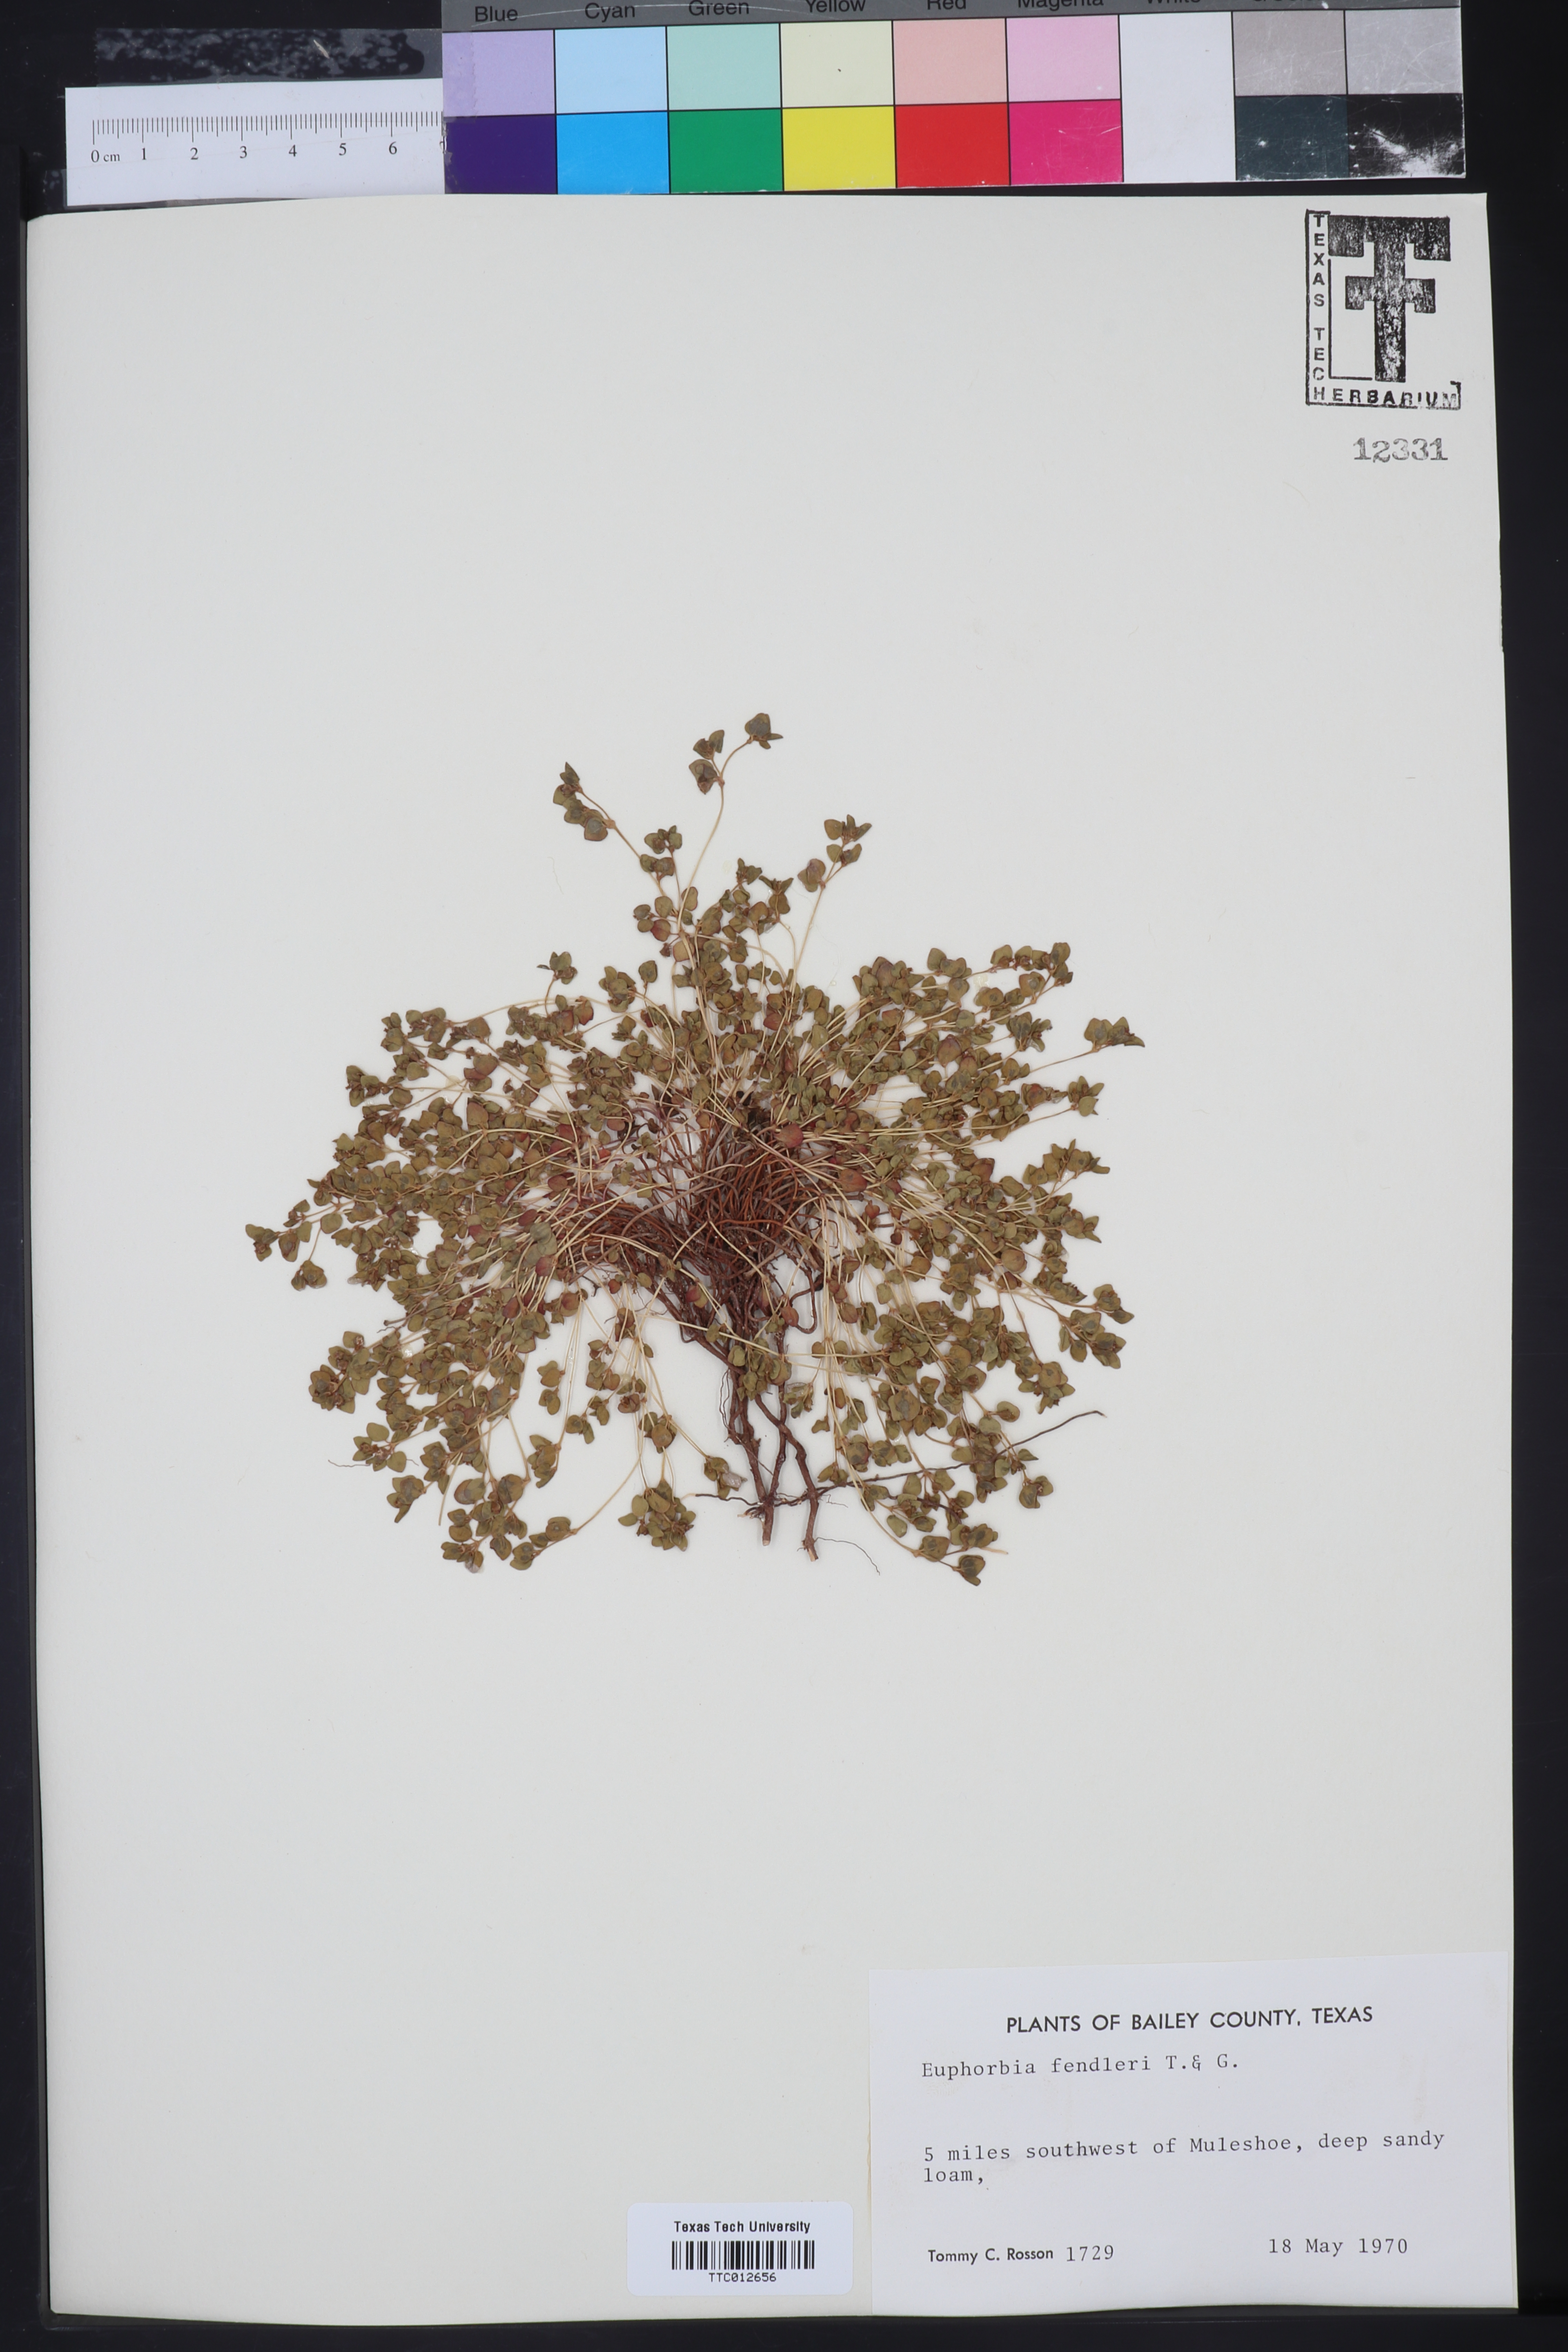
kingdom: Plantae
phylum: Tracheophyta
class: Magnoliopsida
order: Malpighiales
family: Euphorbiaceae
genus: Euphorbia
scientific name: Euphorbia fendleri
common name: Fendler's euphorbia
